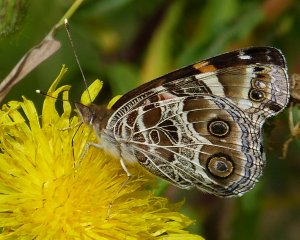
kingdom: Animalia
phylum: Arthropoda
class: Insecta
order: Lepidoptera
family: Nymphalidae
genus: Vanessa
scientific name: Vanessa virginiensis
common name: American Lady
